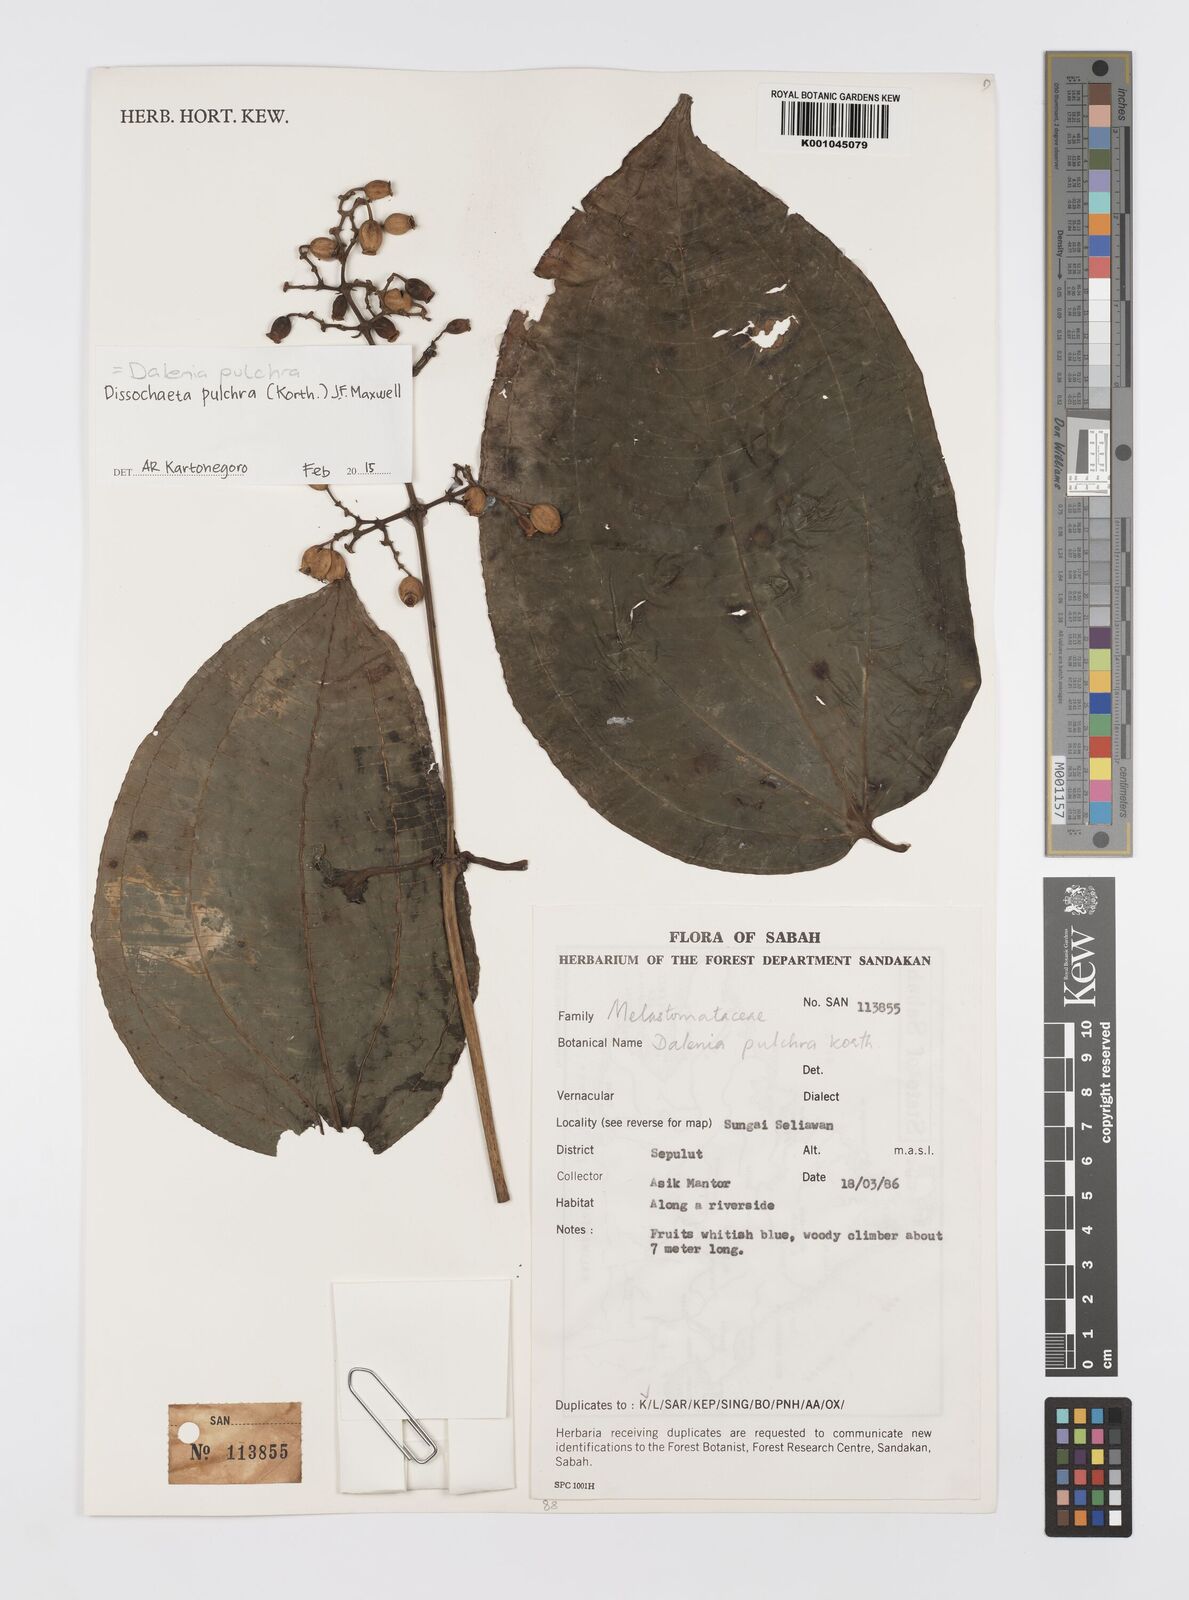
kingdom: Plantae
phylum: Tracheophyta
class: Magnoliopsida
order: Myrtales
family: Melastomataceae
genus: Dalenia
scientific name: Dalenia pulchra
